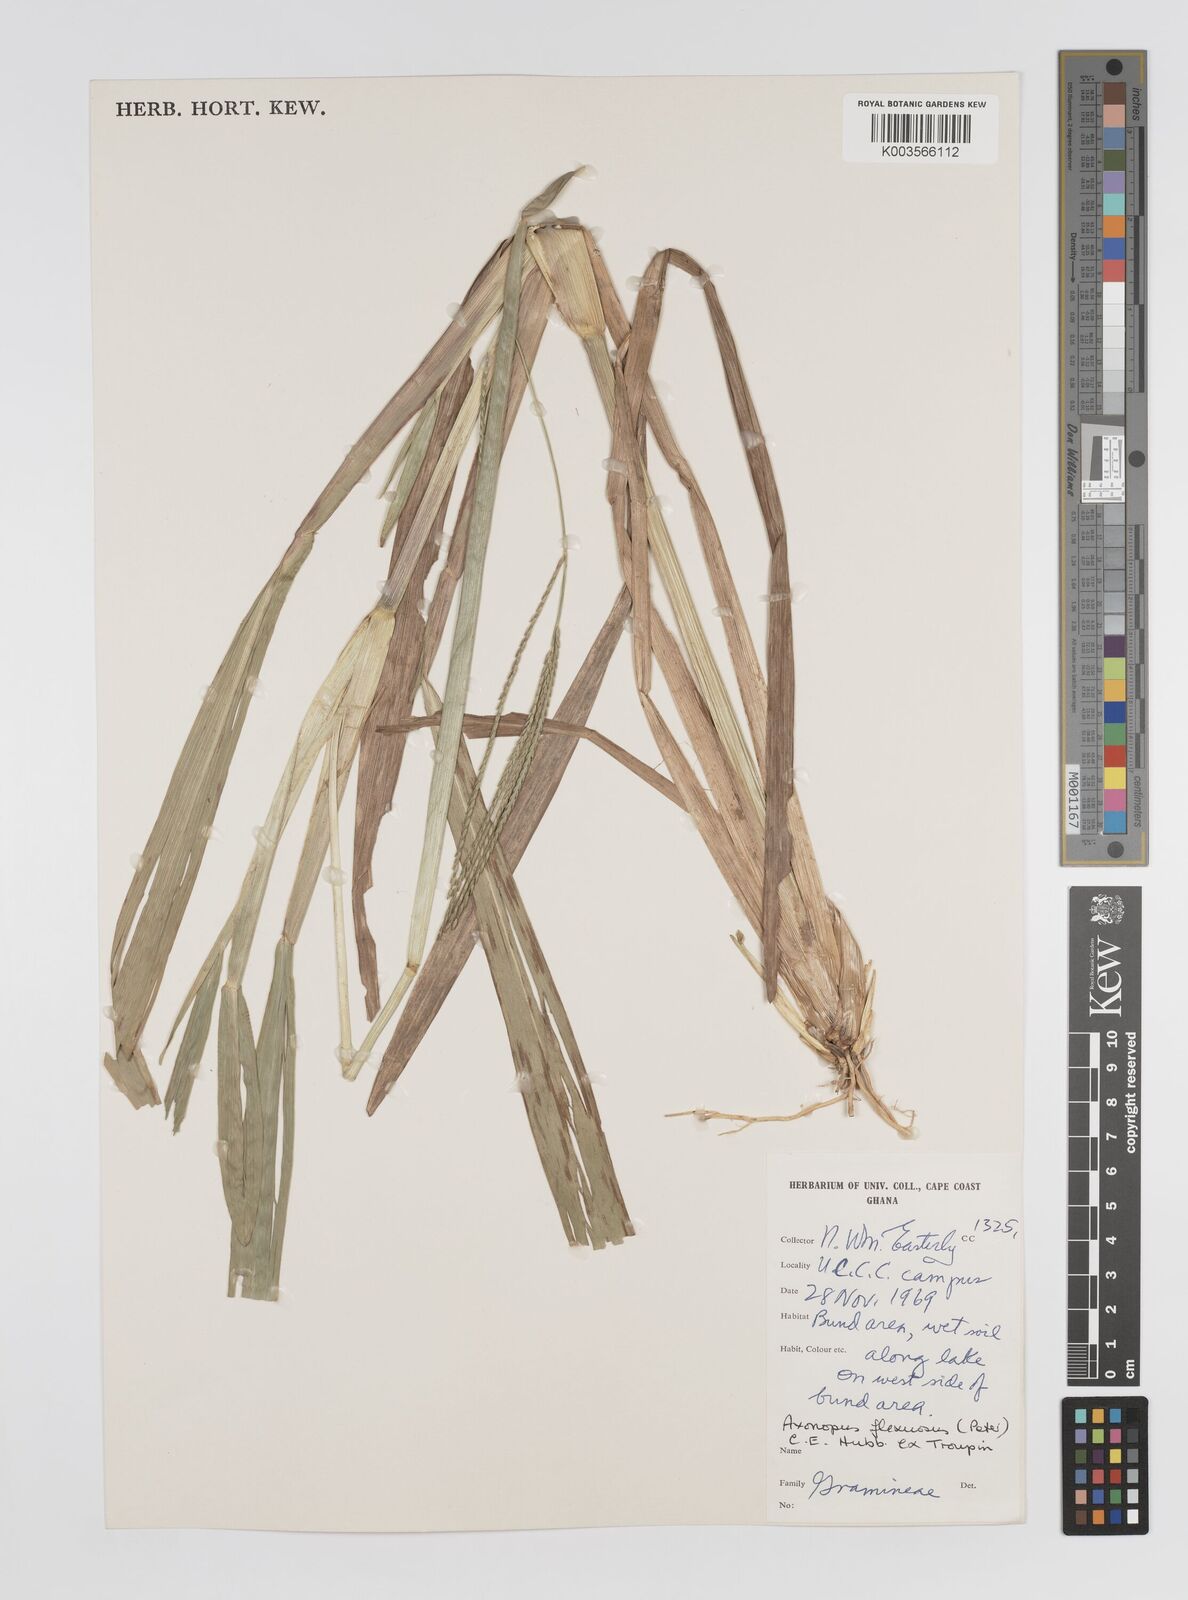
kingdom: Plantae
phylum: Tracheophyta
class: Liliopsida
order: Poales
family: Poaceae
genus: Axonopus
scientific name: Axonopus flexuosus
